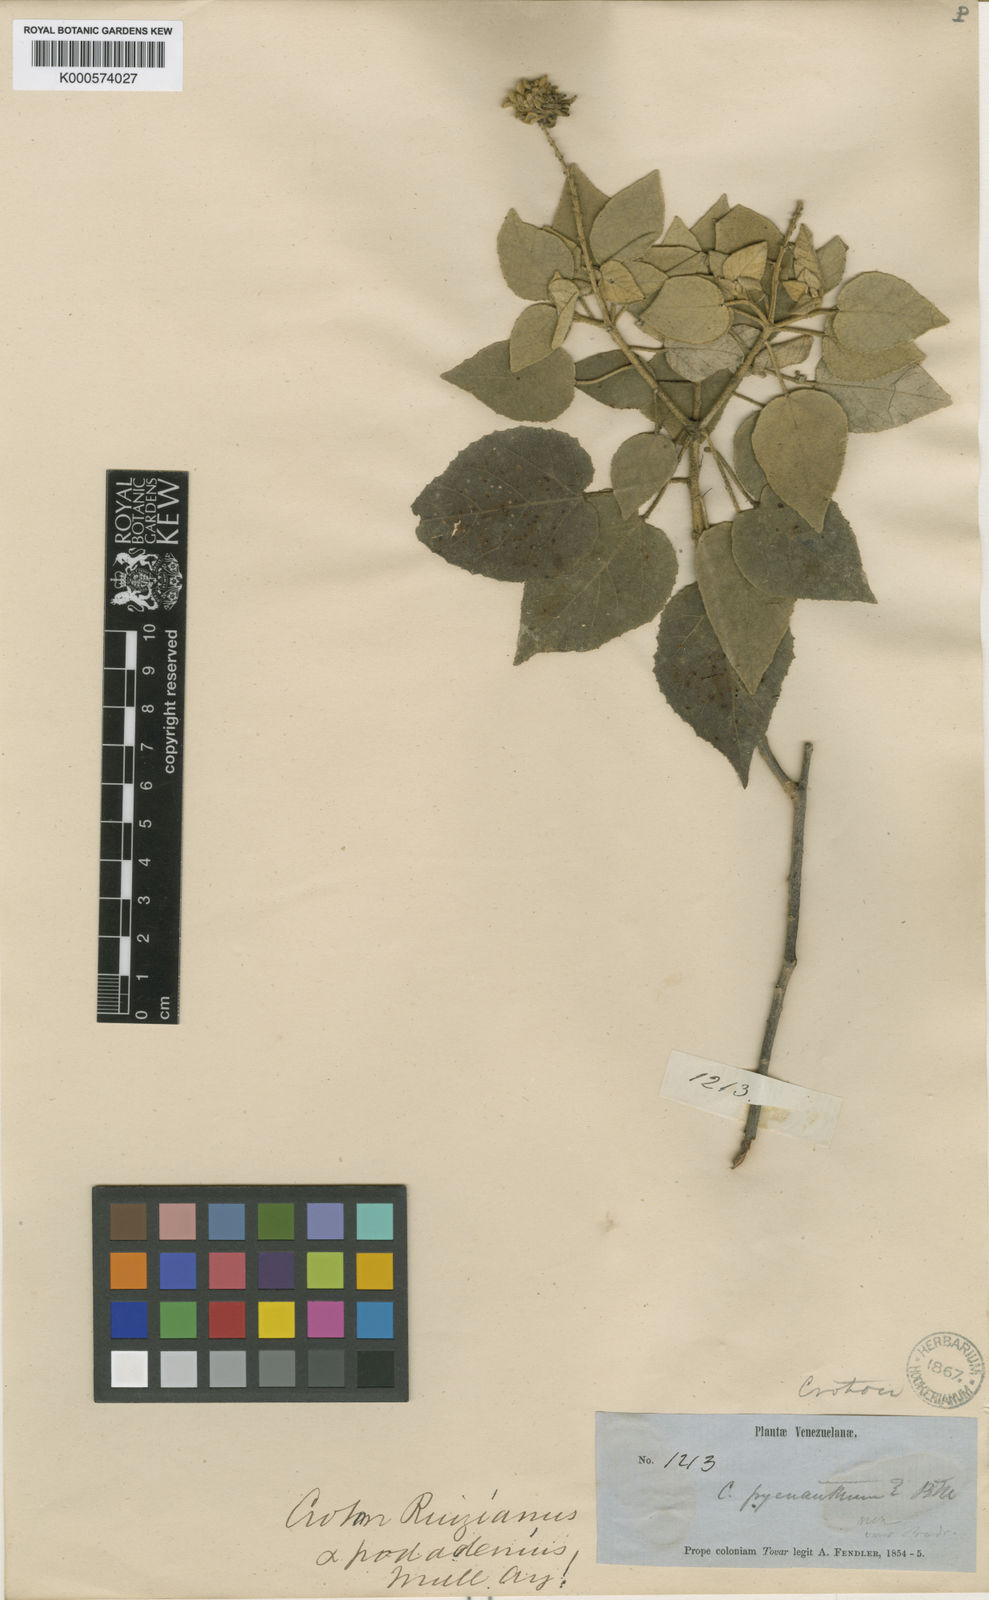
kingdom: Plantae
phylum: Tracheophyta
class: Magnoliopsida
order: Malpighiales
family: Euphorbiaceae
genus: Croton
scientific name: Croton pungens
